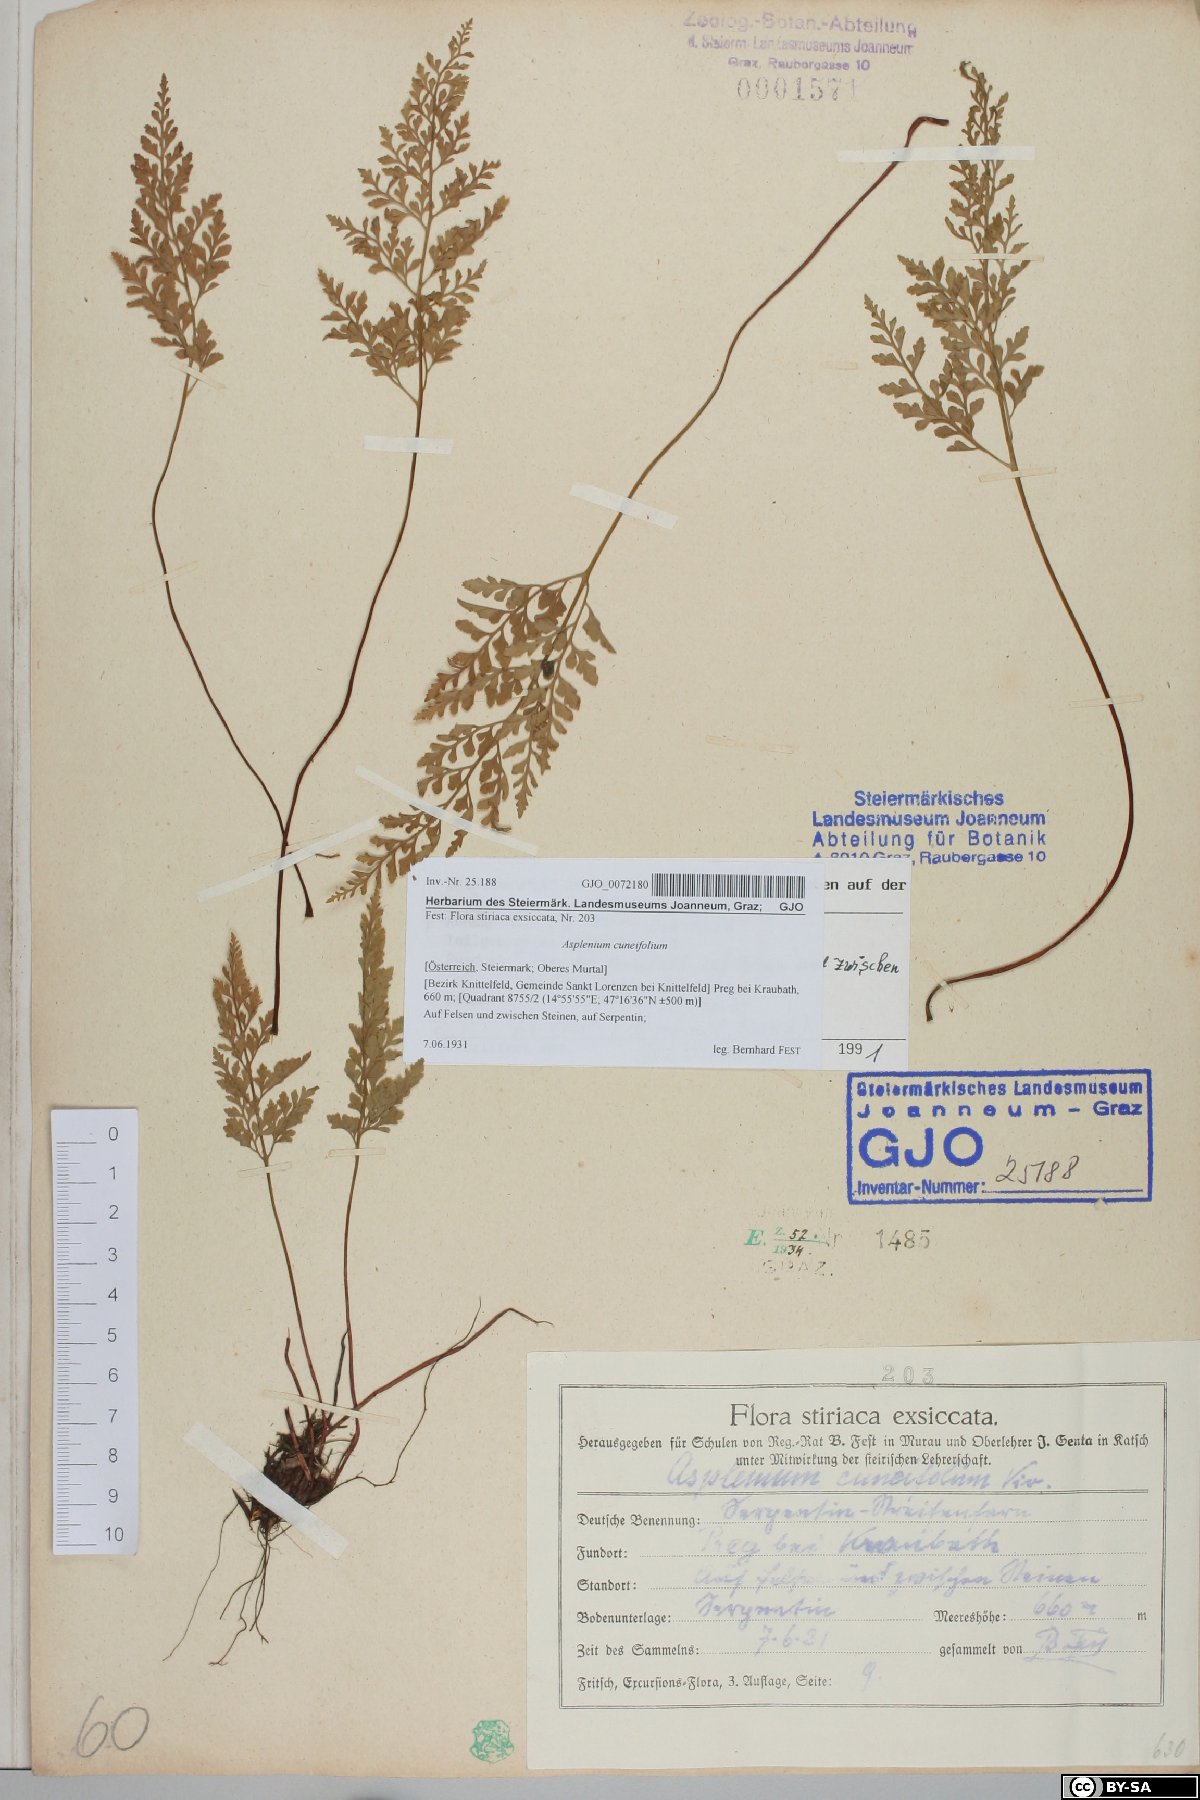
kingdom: Plantae
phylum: Tracheophyta
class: Polypodiopsida
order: Polypodiales
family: Aspleniaceae
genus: Asplenium
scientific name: Asplenium cuneifolium
